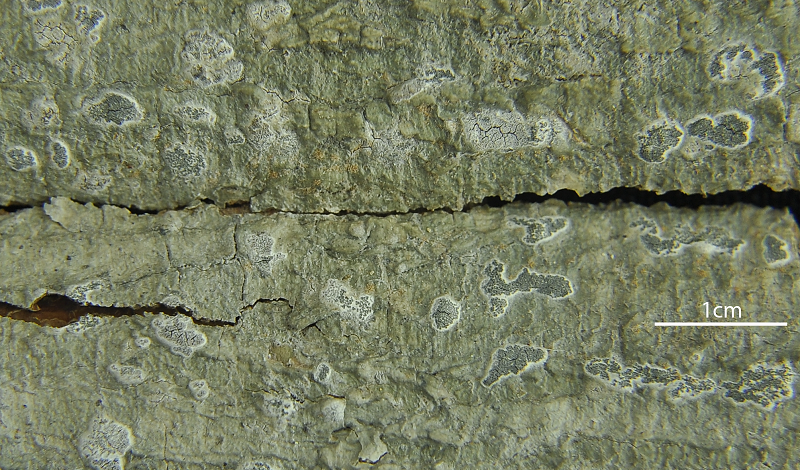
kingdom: Fungi
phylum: Ascomycota
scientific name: Ascomycota
